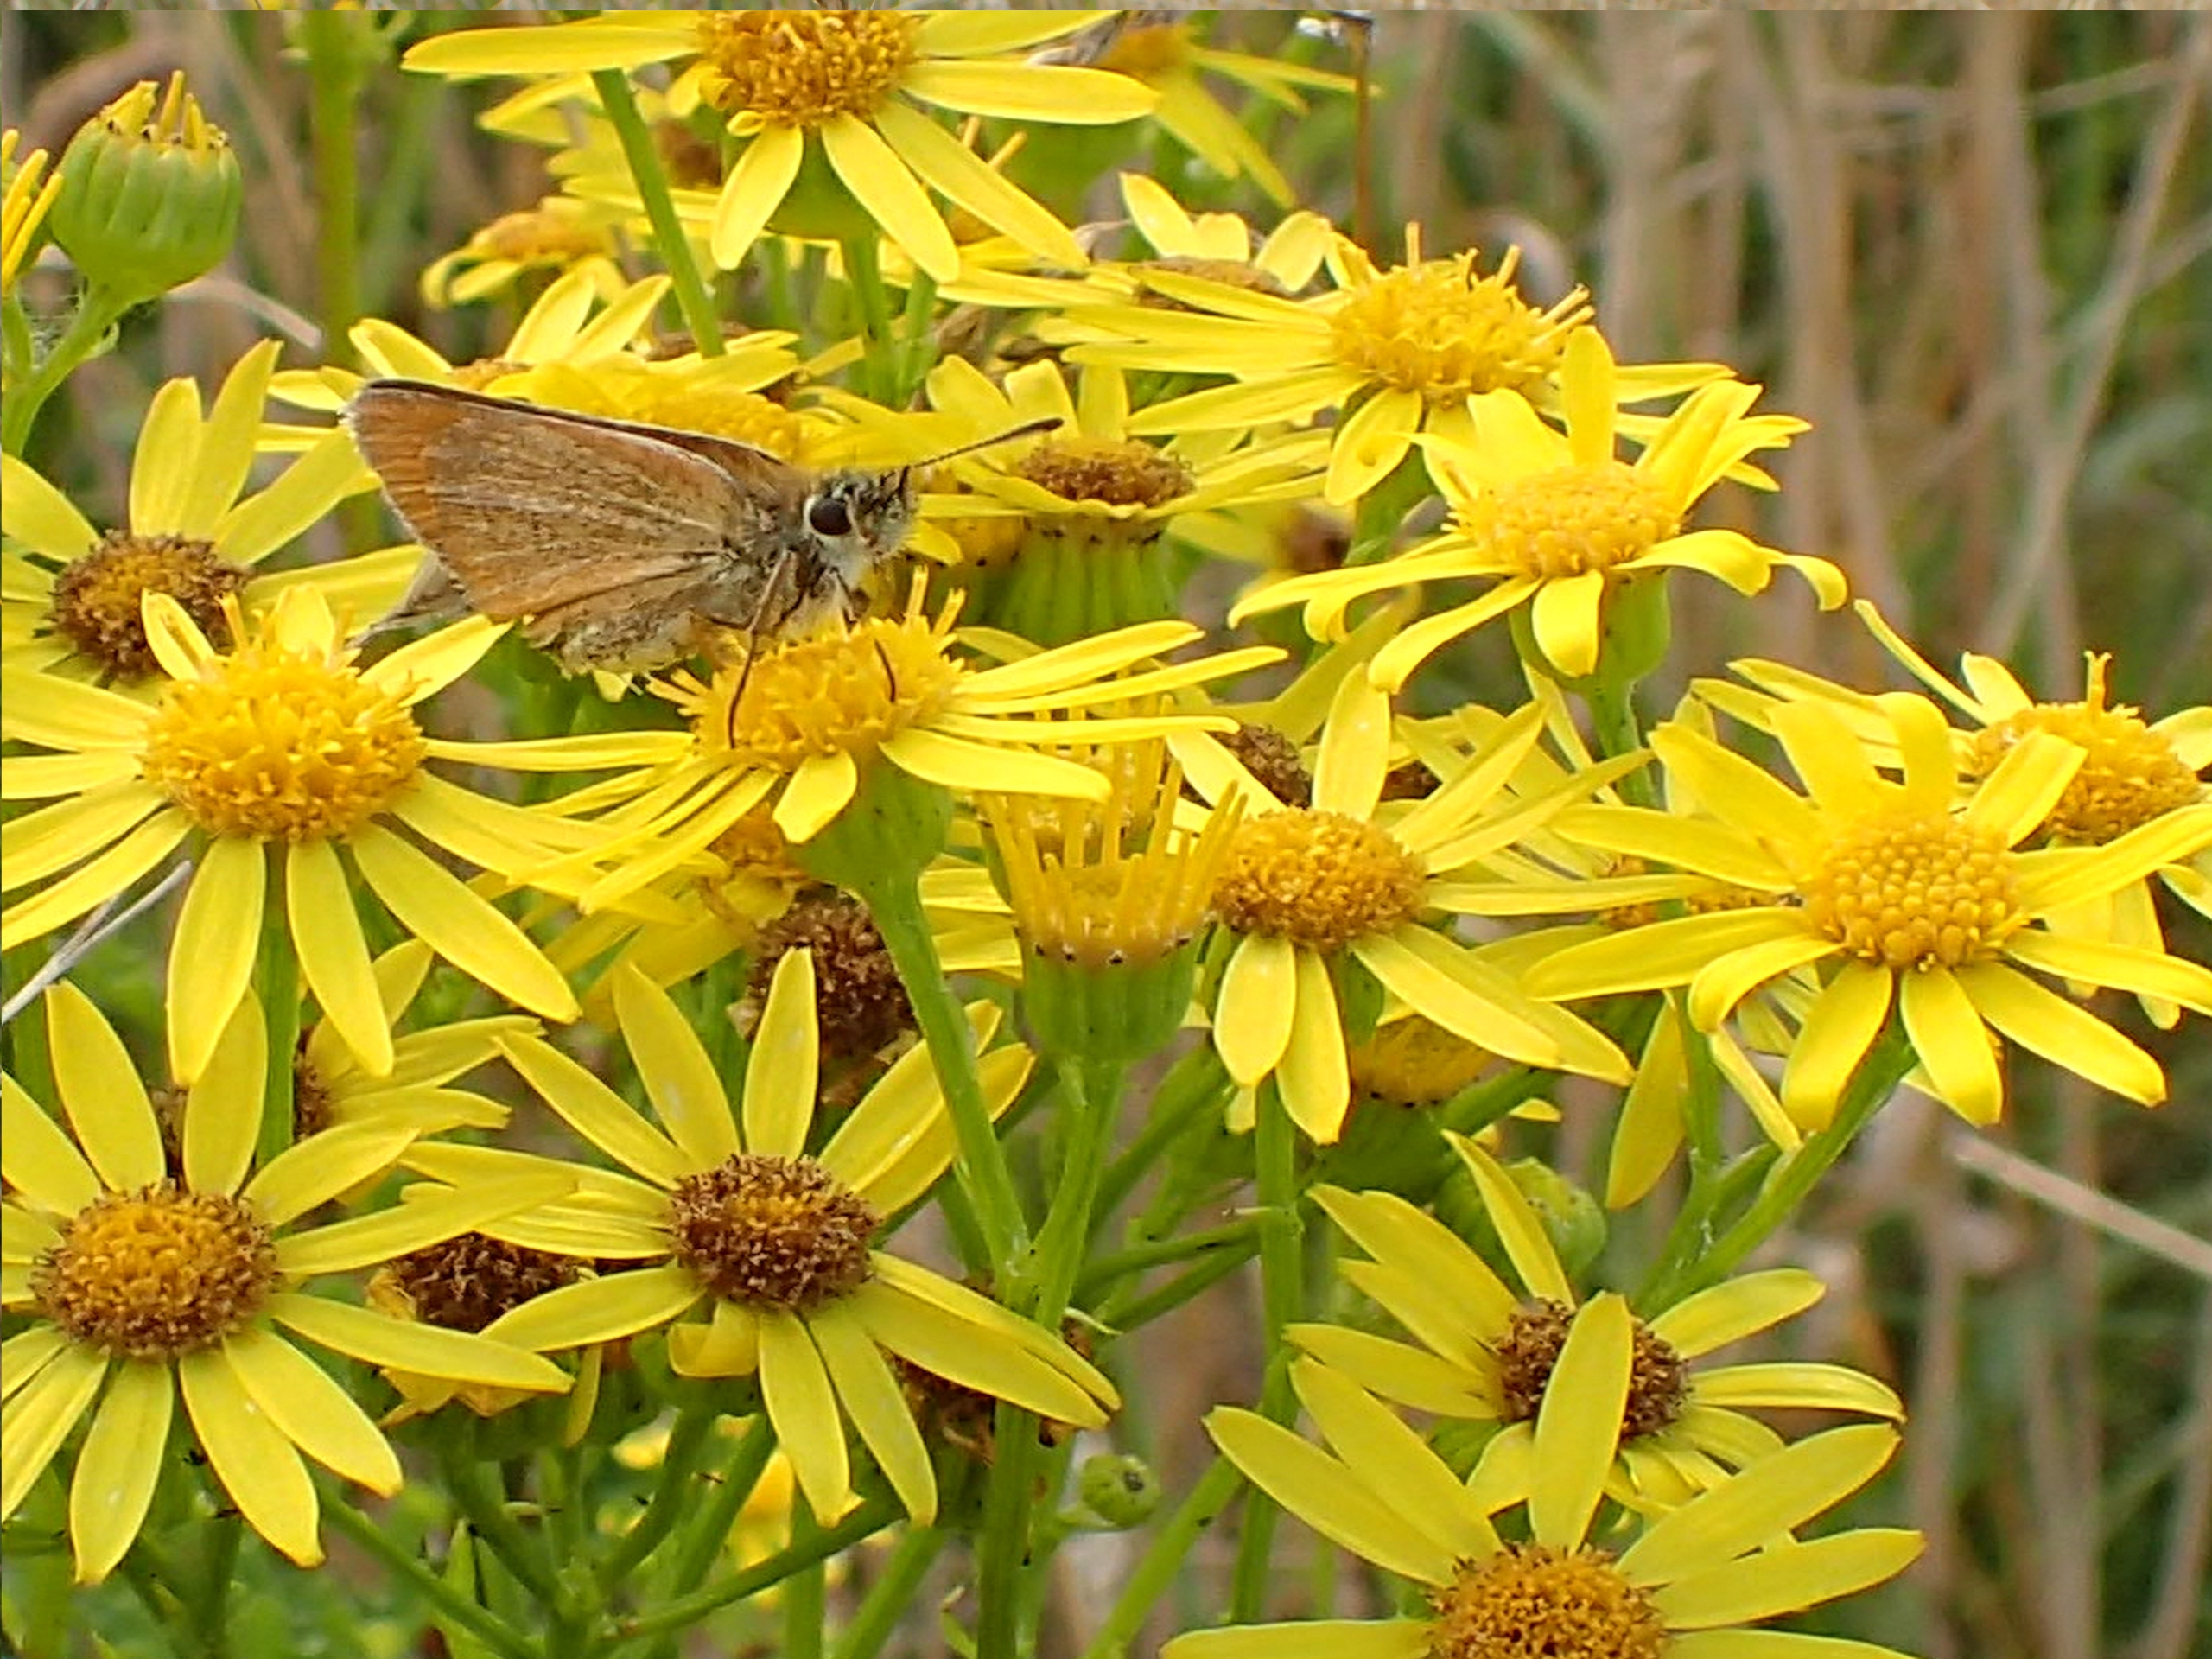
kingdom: Animalia
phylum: Arthropoda
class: Insecta
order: Lepidoptera
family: Hesperiidae
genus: Thymelicus
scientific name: Thymelicus lineola
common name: Stregbredpande
